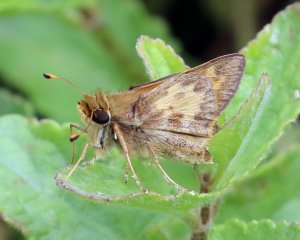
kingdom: Animalia
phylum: Arthropoda
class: Insecta
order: Lepidoptera
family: Hesperiidae
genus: Atalopedes
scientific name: Atalopedes campestris
